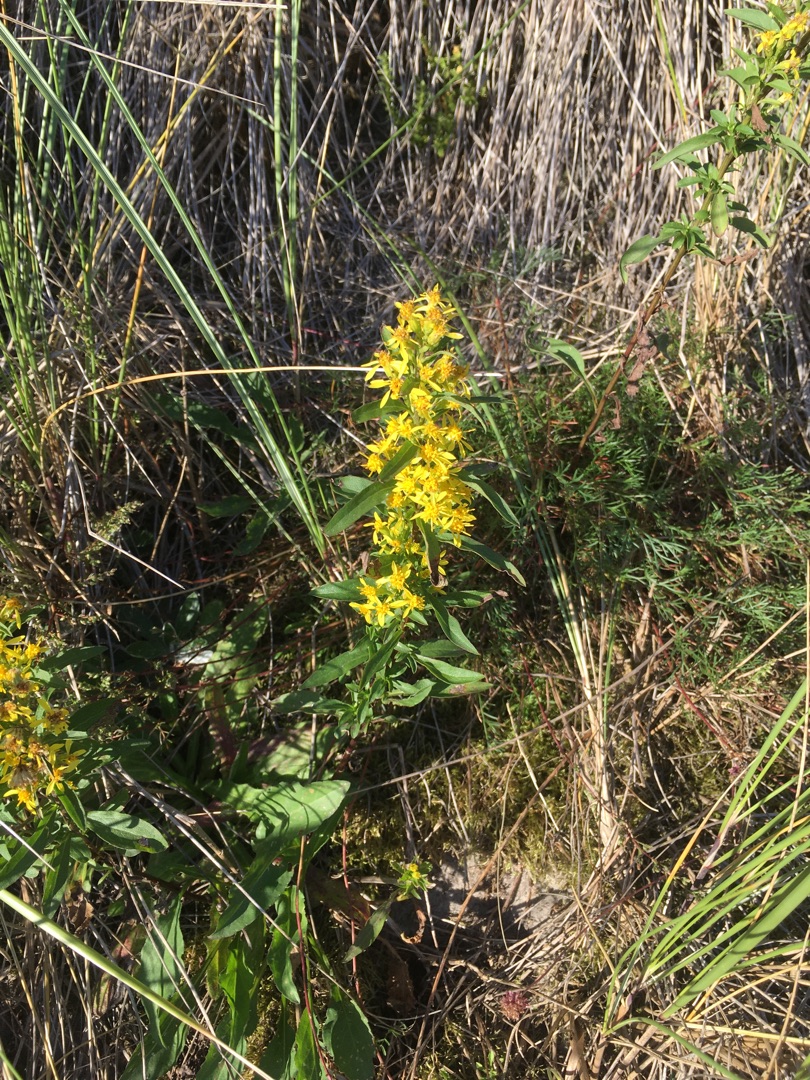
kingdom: Plantae
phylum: Tracheophyta
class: Magnoliopsida
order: Asterales
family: Asteraceae
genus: Solidago
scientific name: Solidago virgaurea
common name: Almindelig gyldenris
